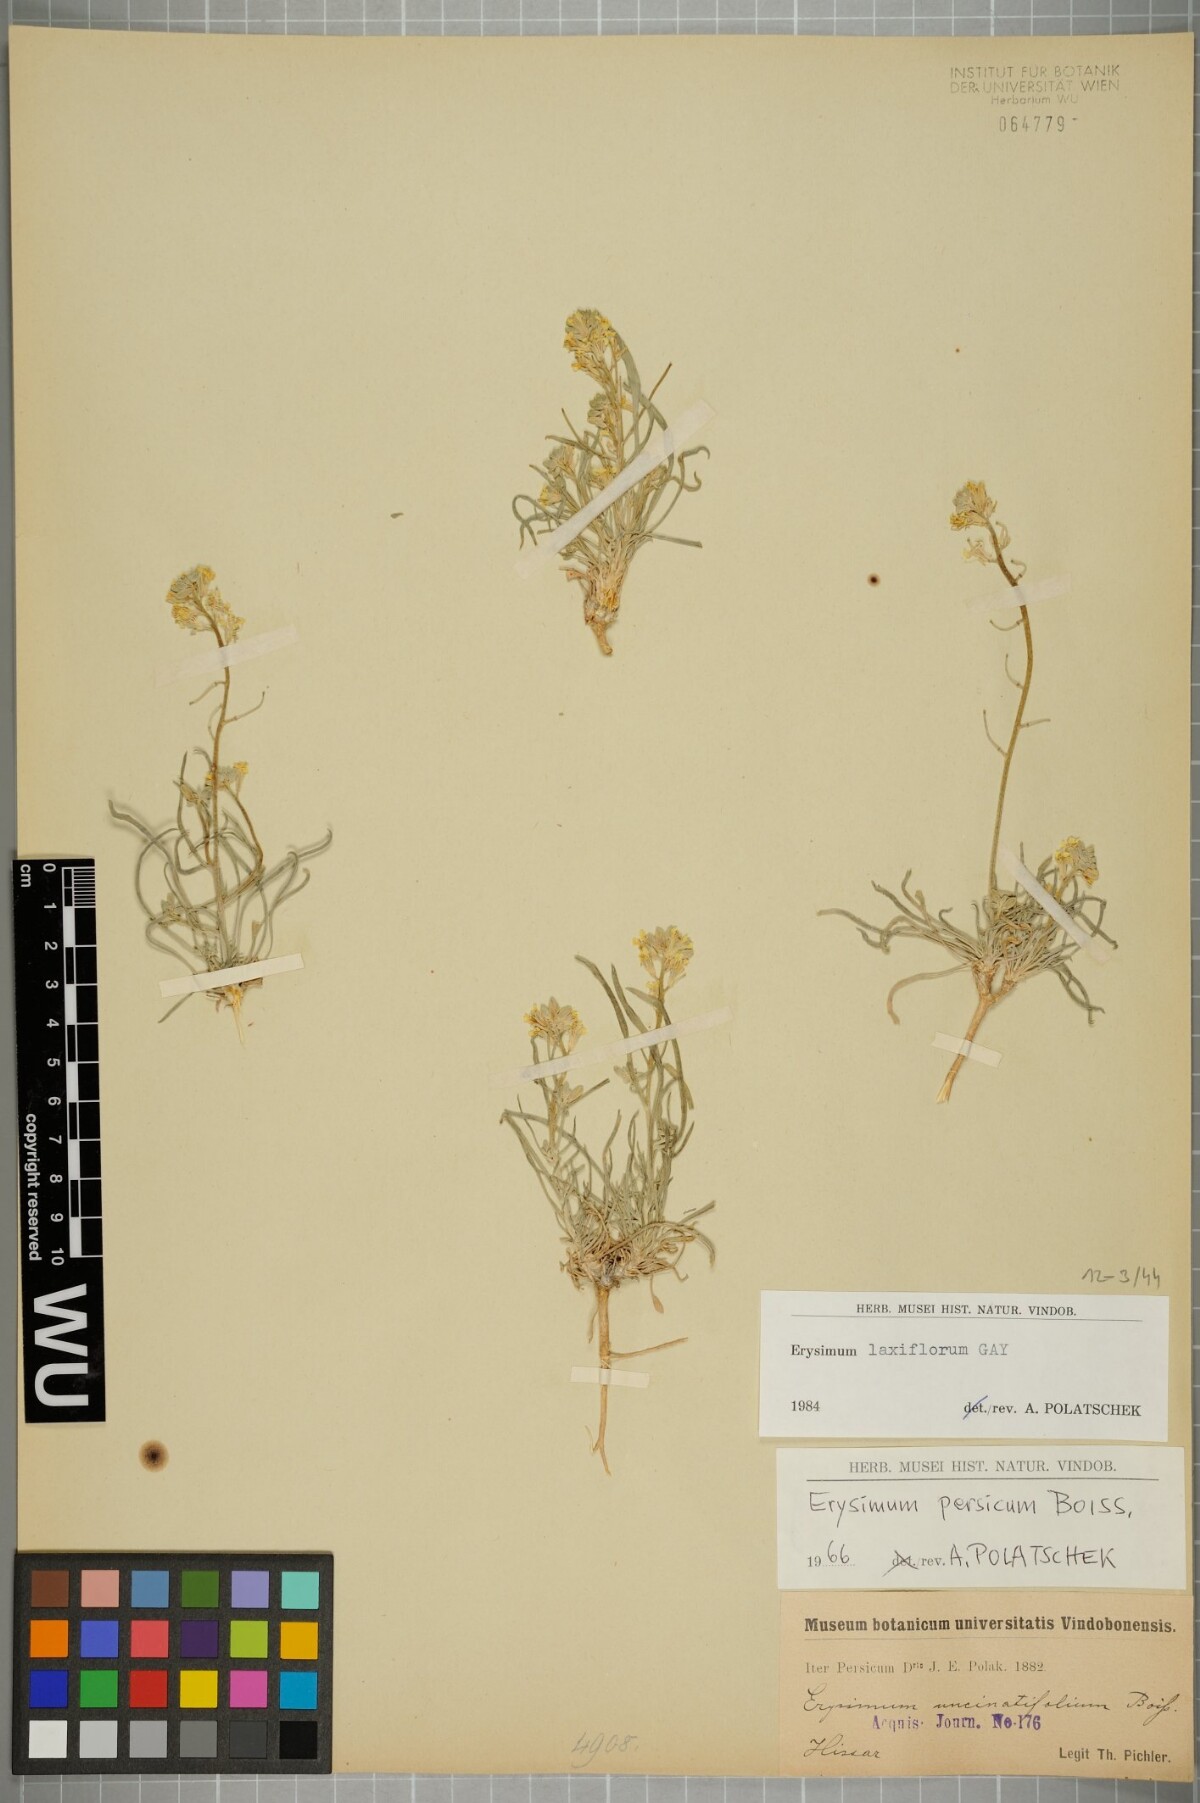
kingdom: Plantae
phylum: Tracheophyta
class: Magnoliopsida
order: Brassicales
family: Brassicaceae
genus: Erysimum
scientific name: Erysimum laxiflorum
